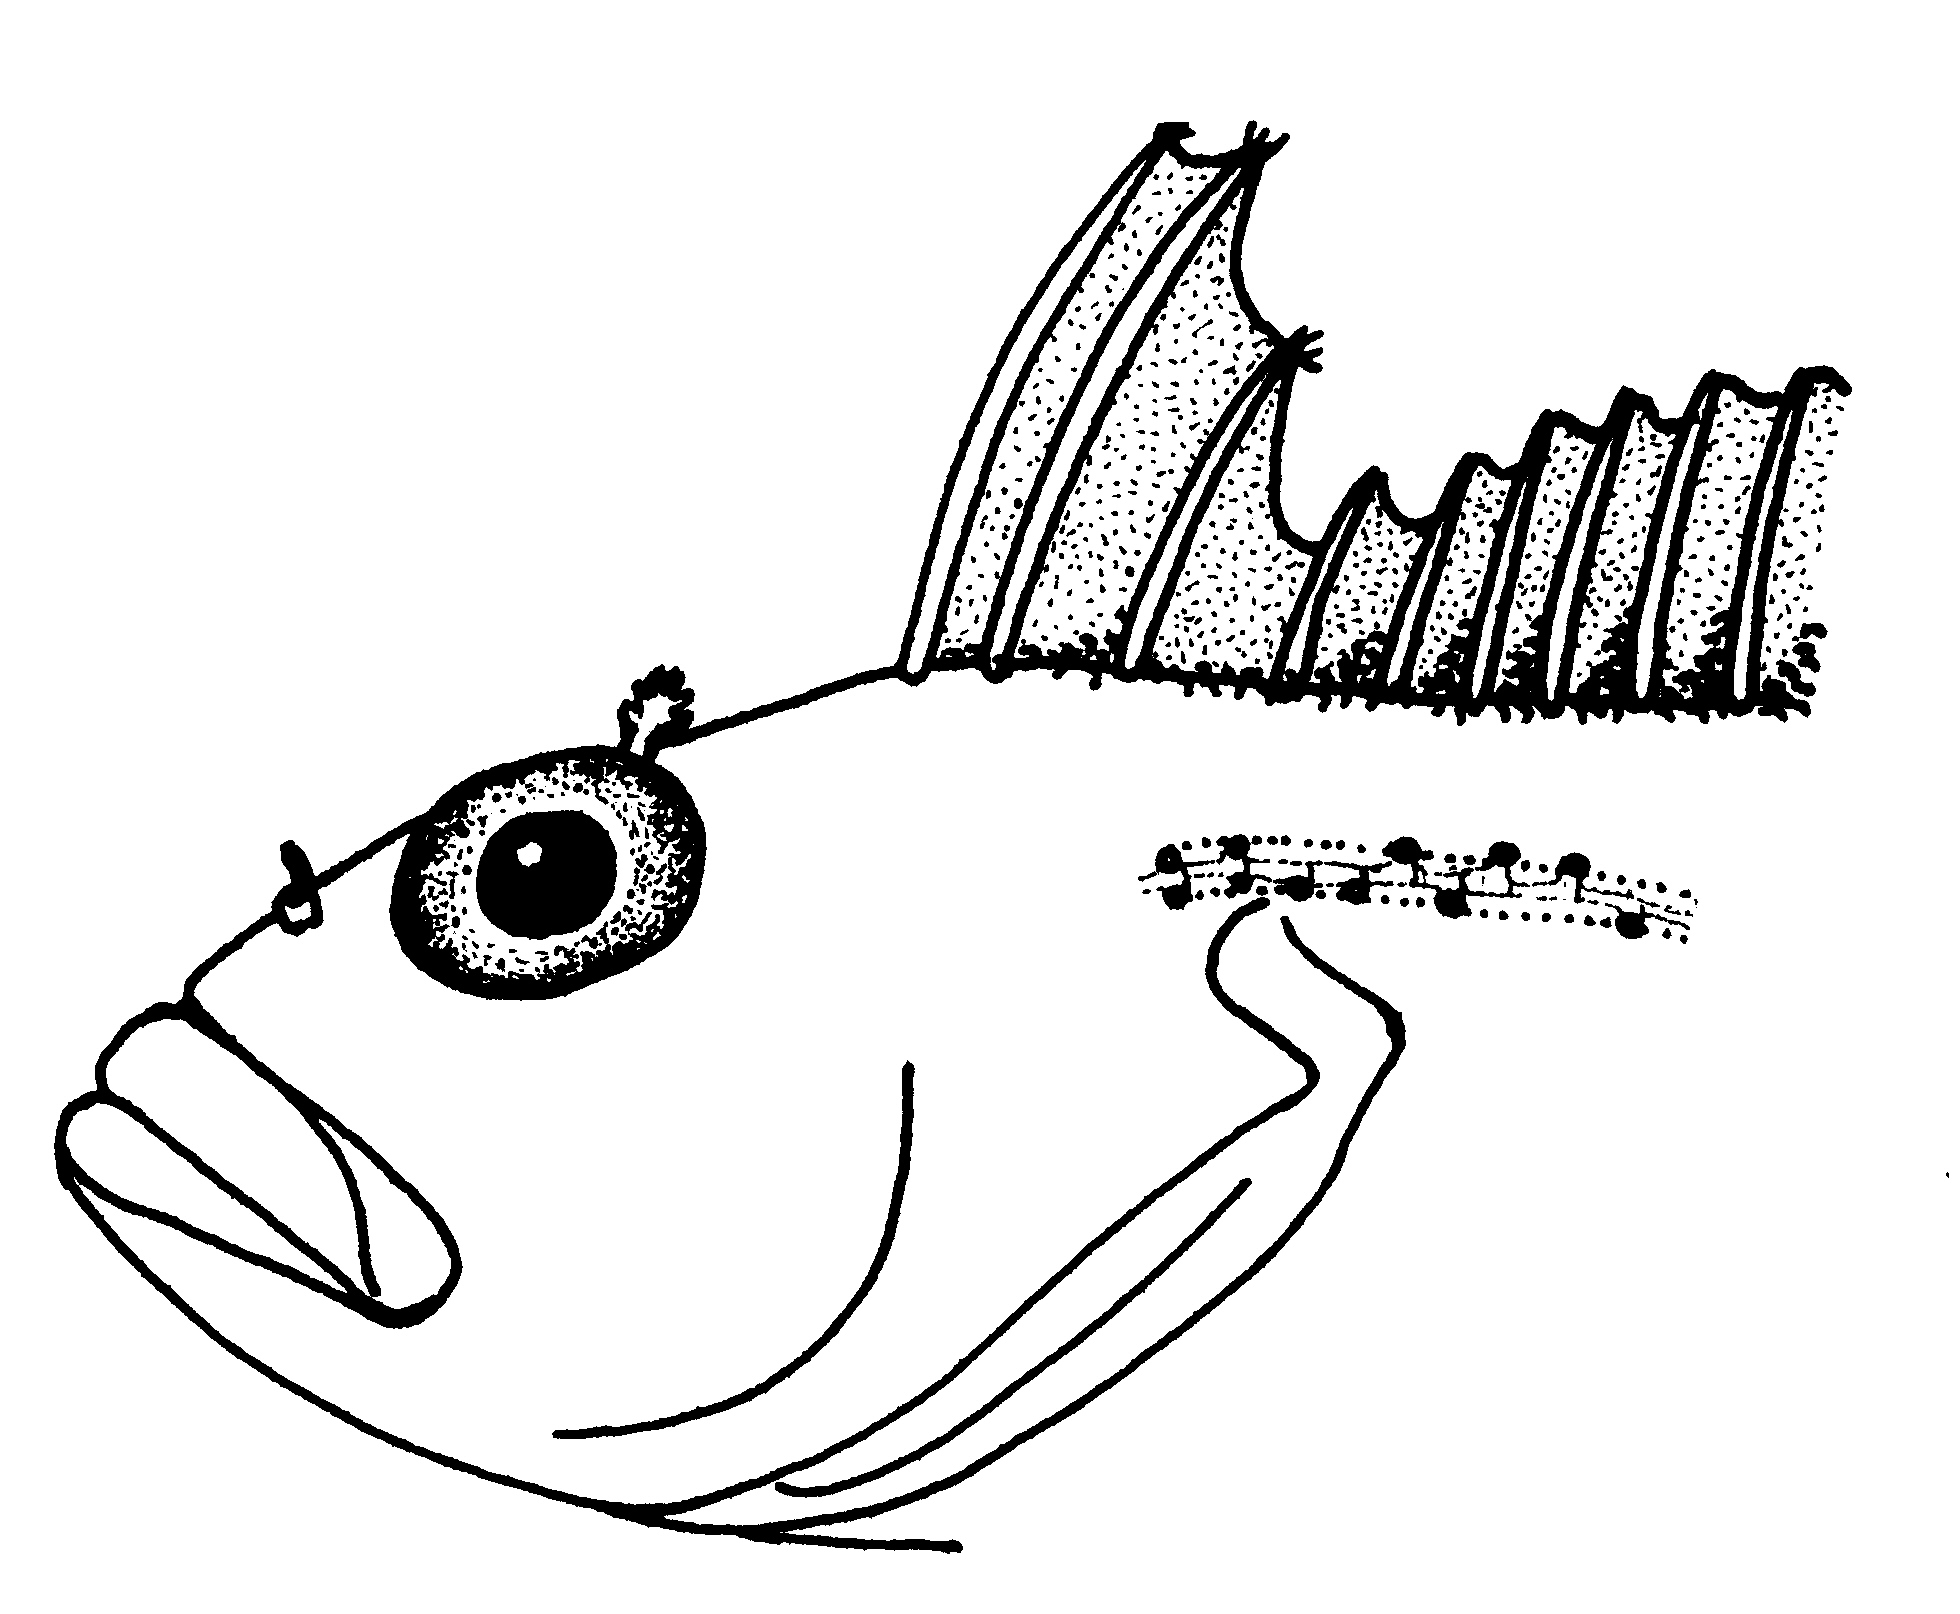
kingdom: Animalia
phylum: Chordata
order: Perciformes
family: Clinidae
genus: Clinus
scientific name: Clinus superciliosus
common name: Super klipfish
